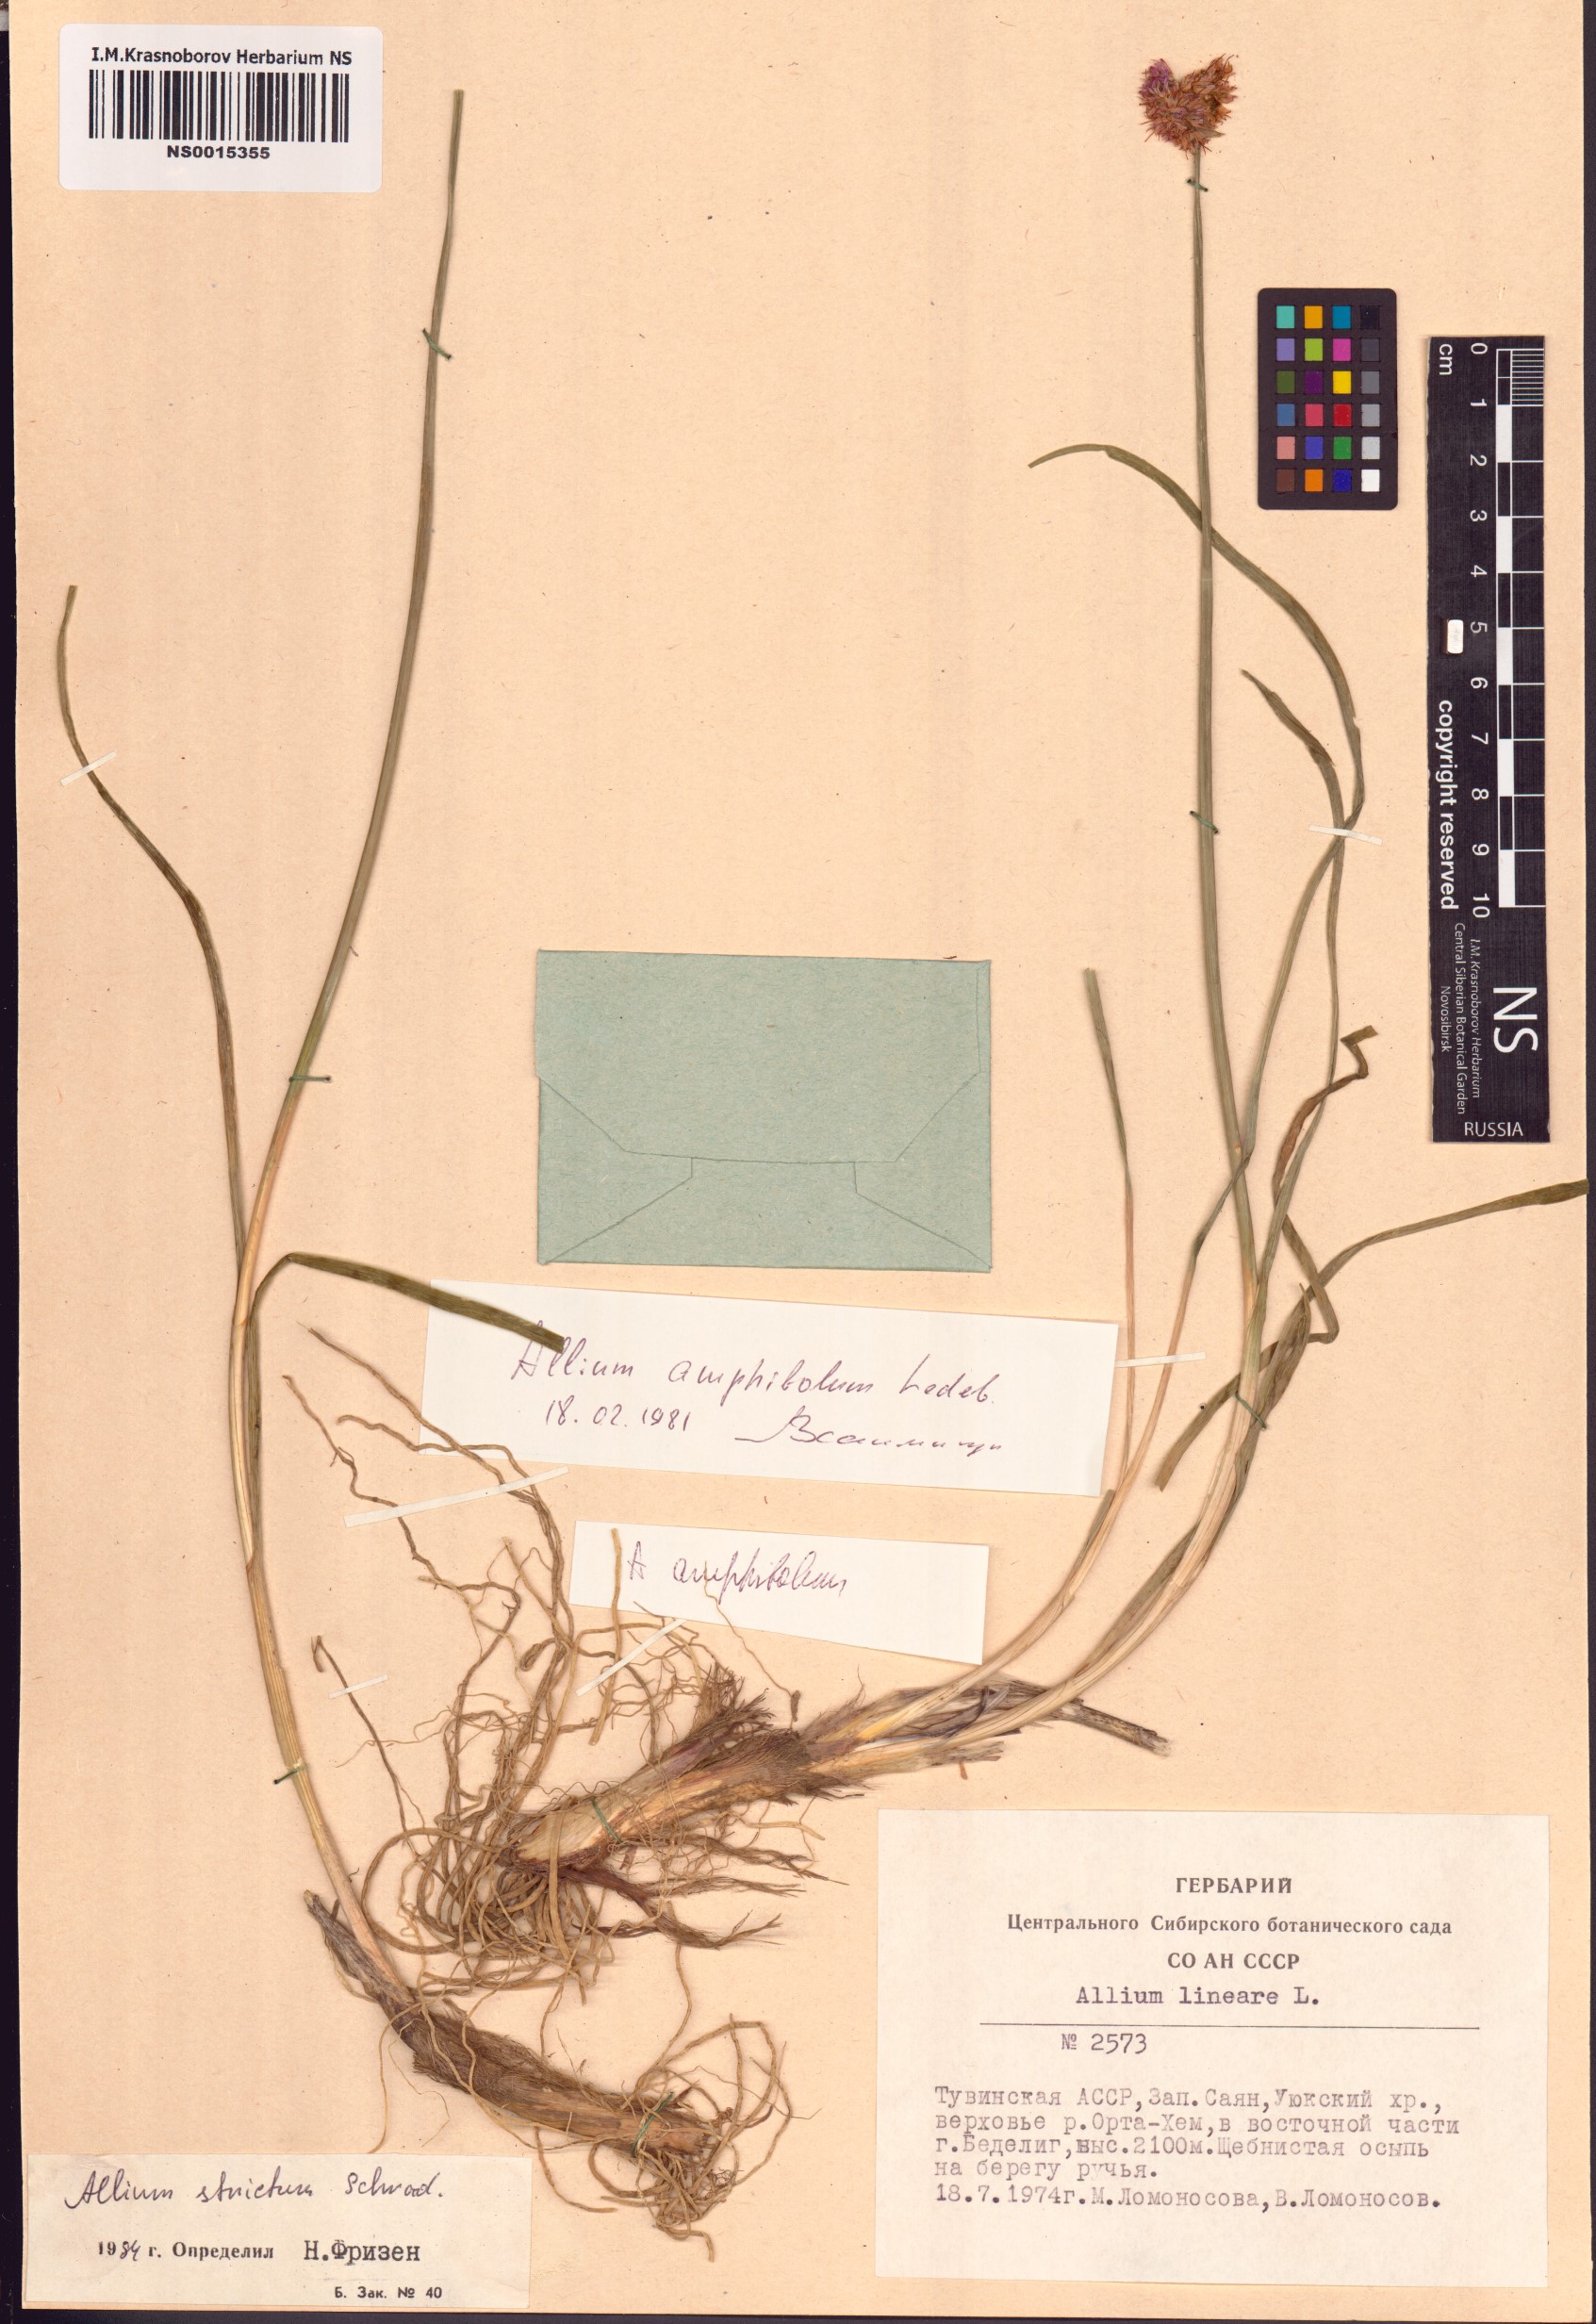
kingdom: Plantae
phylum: Tracheophyta
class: Liliopsida
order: Asparagales
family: Amaryllidaceae
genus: Allium
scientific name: Allium strictum
